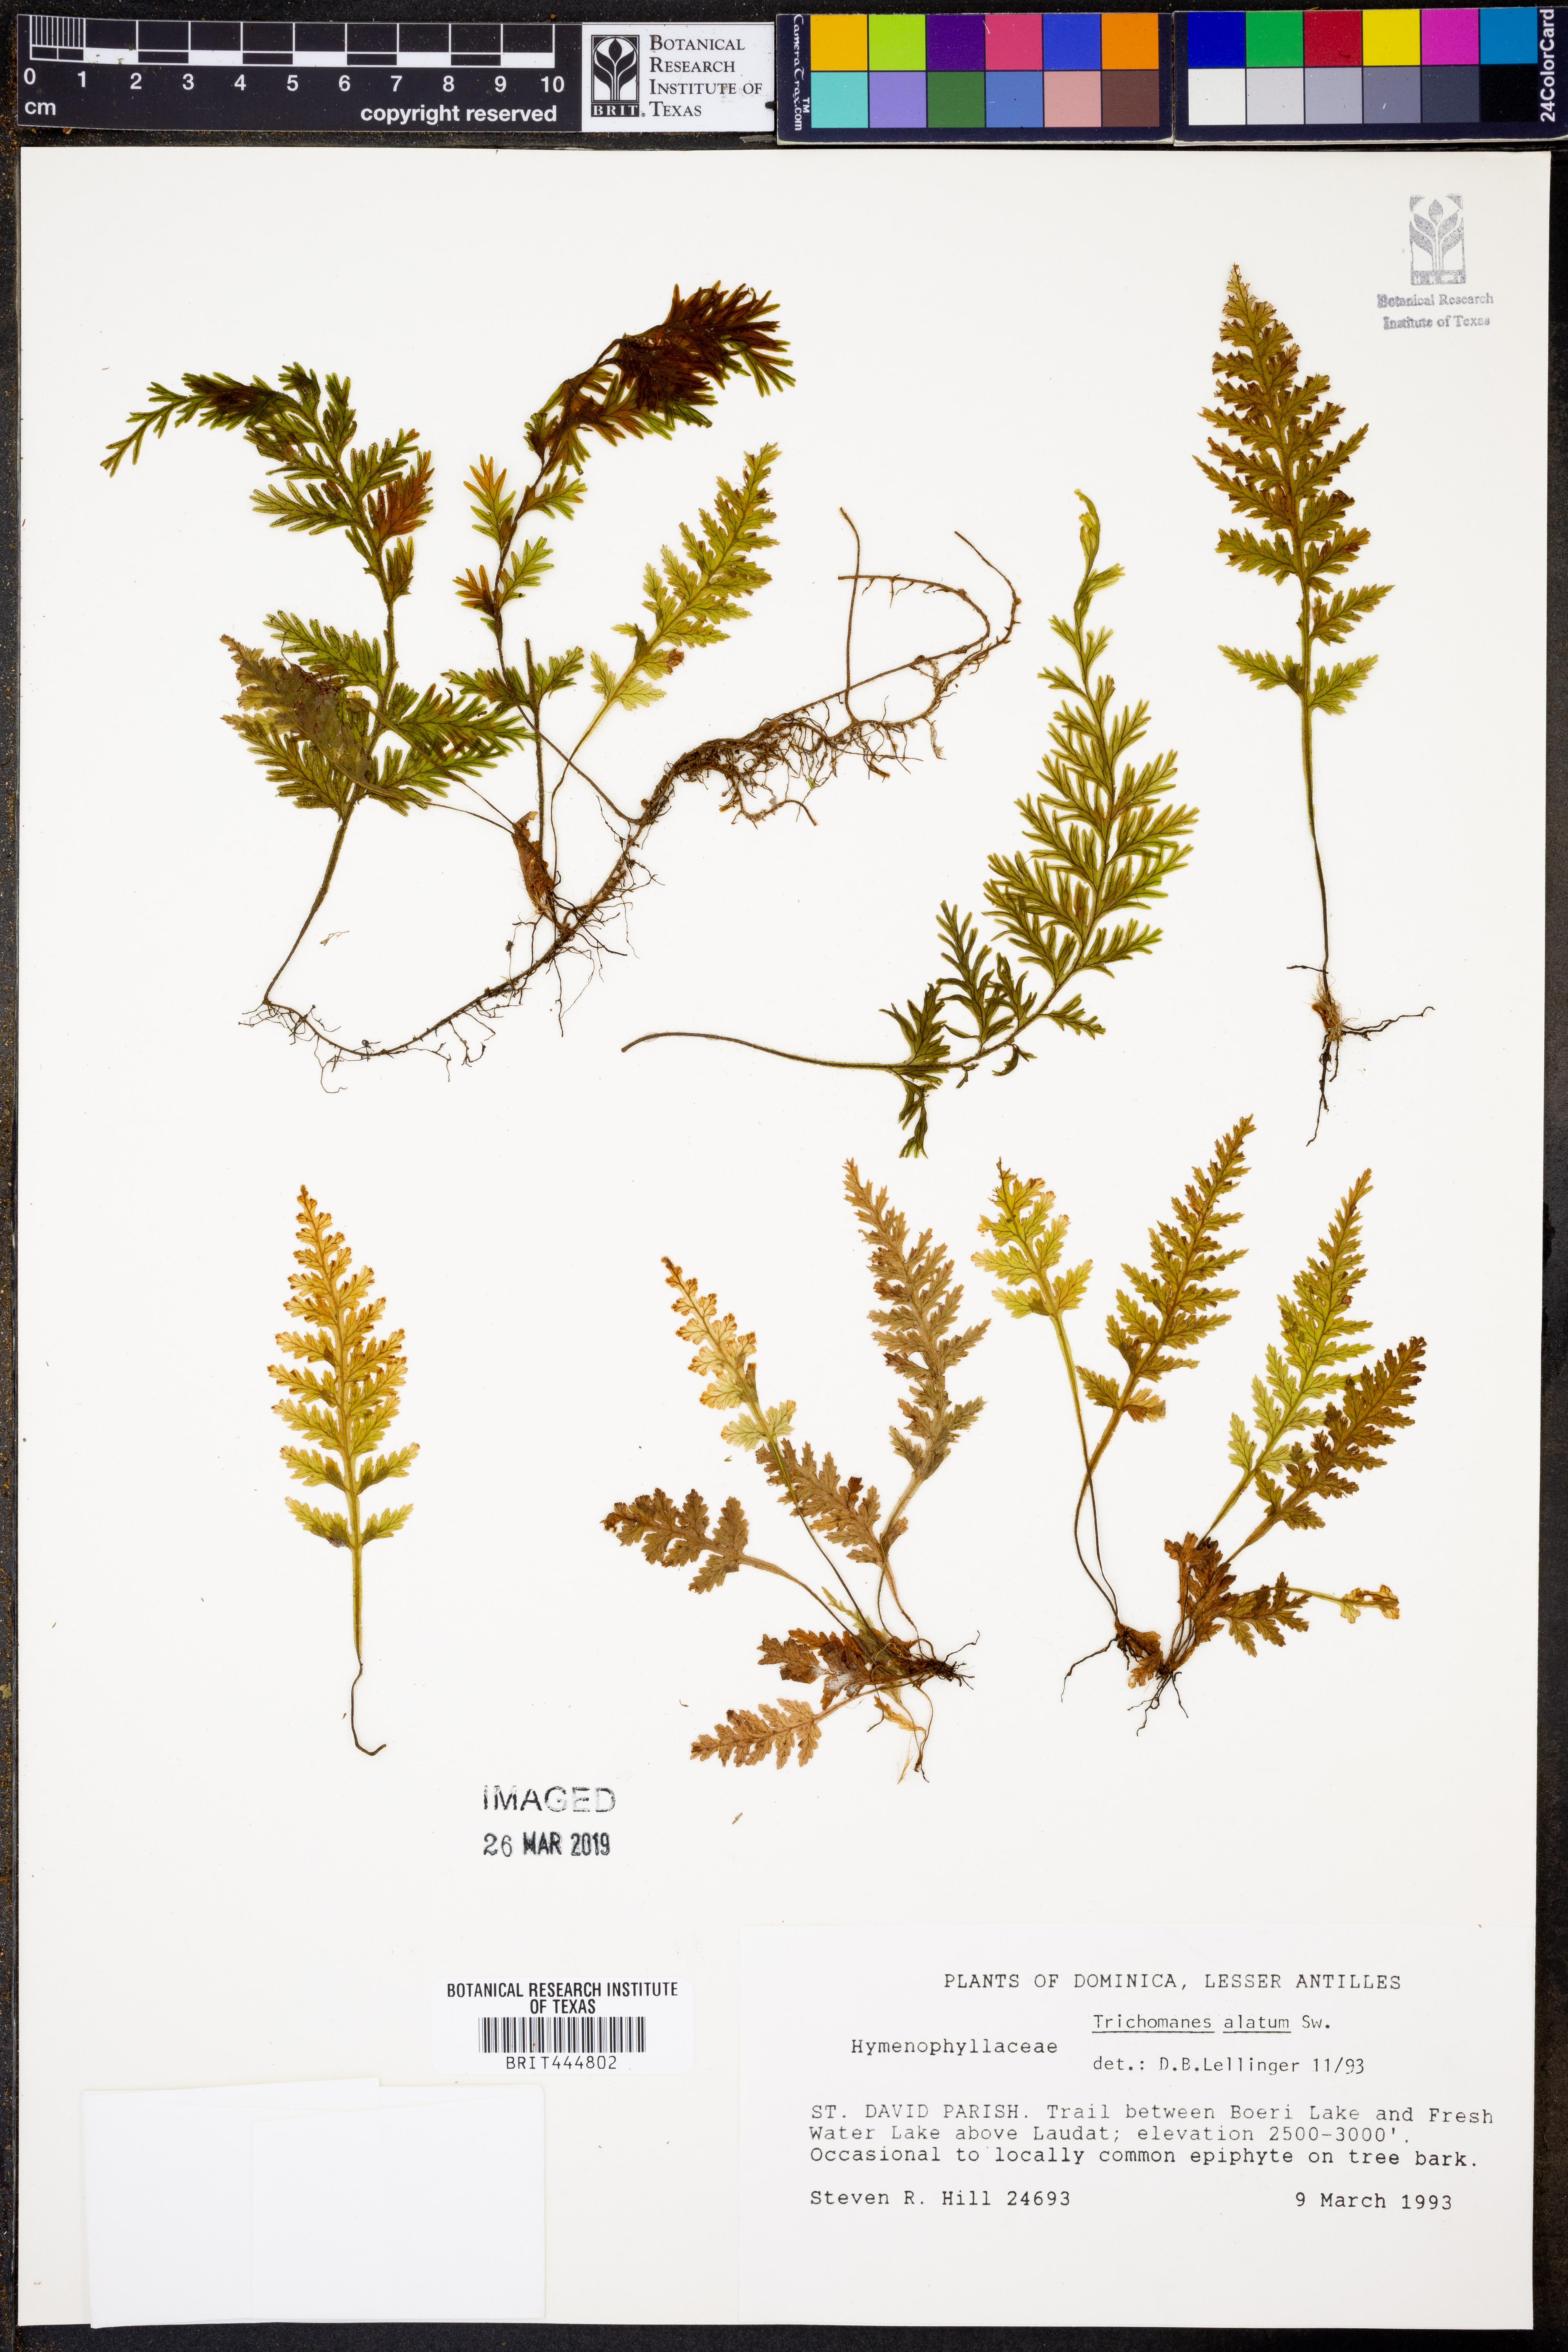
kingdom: Plantae
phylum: Tracheophyta
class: Polypodiopsida
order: Hymenophyllales
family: Hymenophyllaceae
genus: Trichomanes
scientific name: Trichomanes alatum
